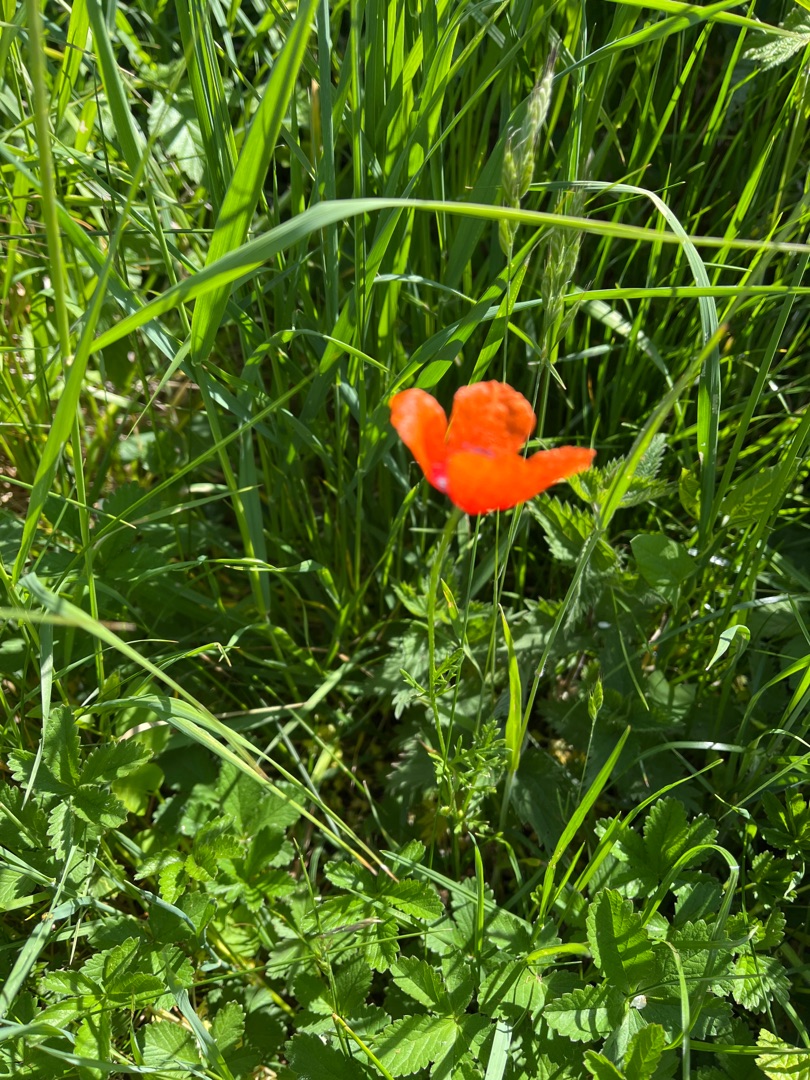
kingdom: Plantae
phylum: Tracheophyta
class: Magnoliopsida
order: Ranunculales
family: Papaveraceae
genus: Papaver
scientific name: Papaver dubium
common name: Gærde-valmue
